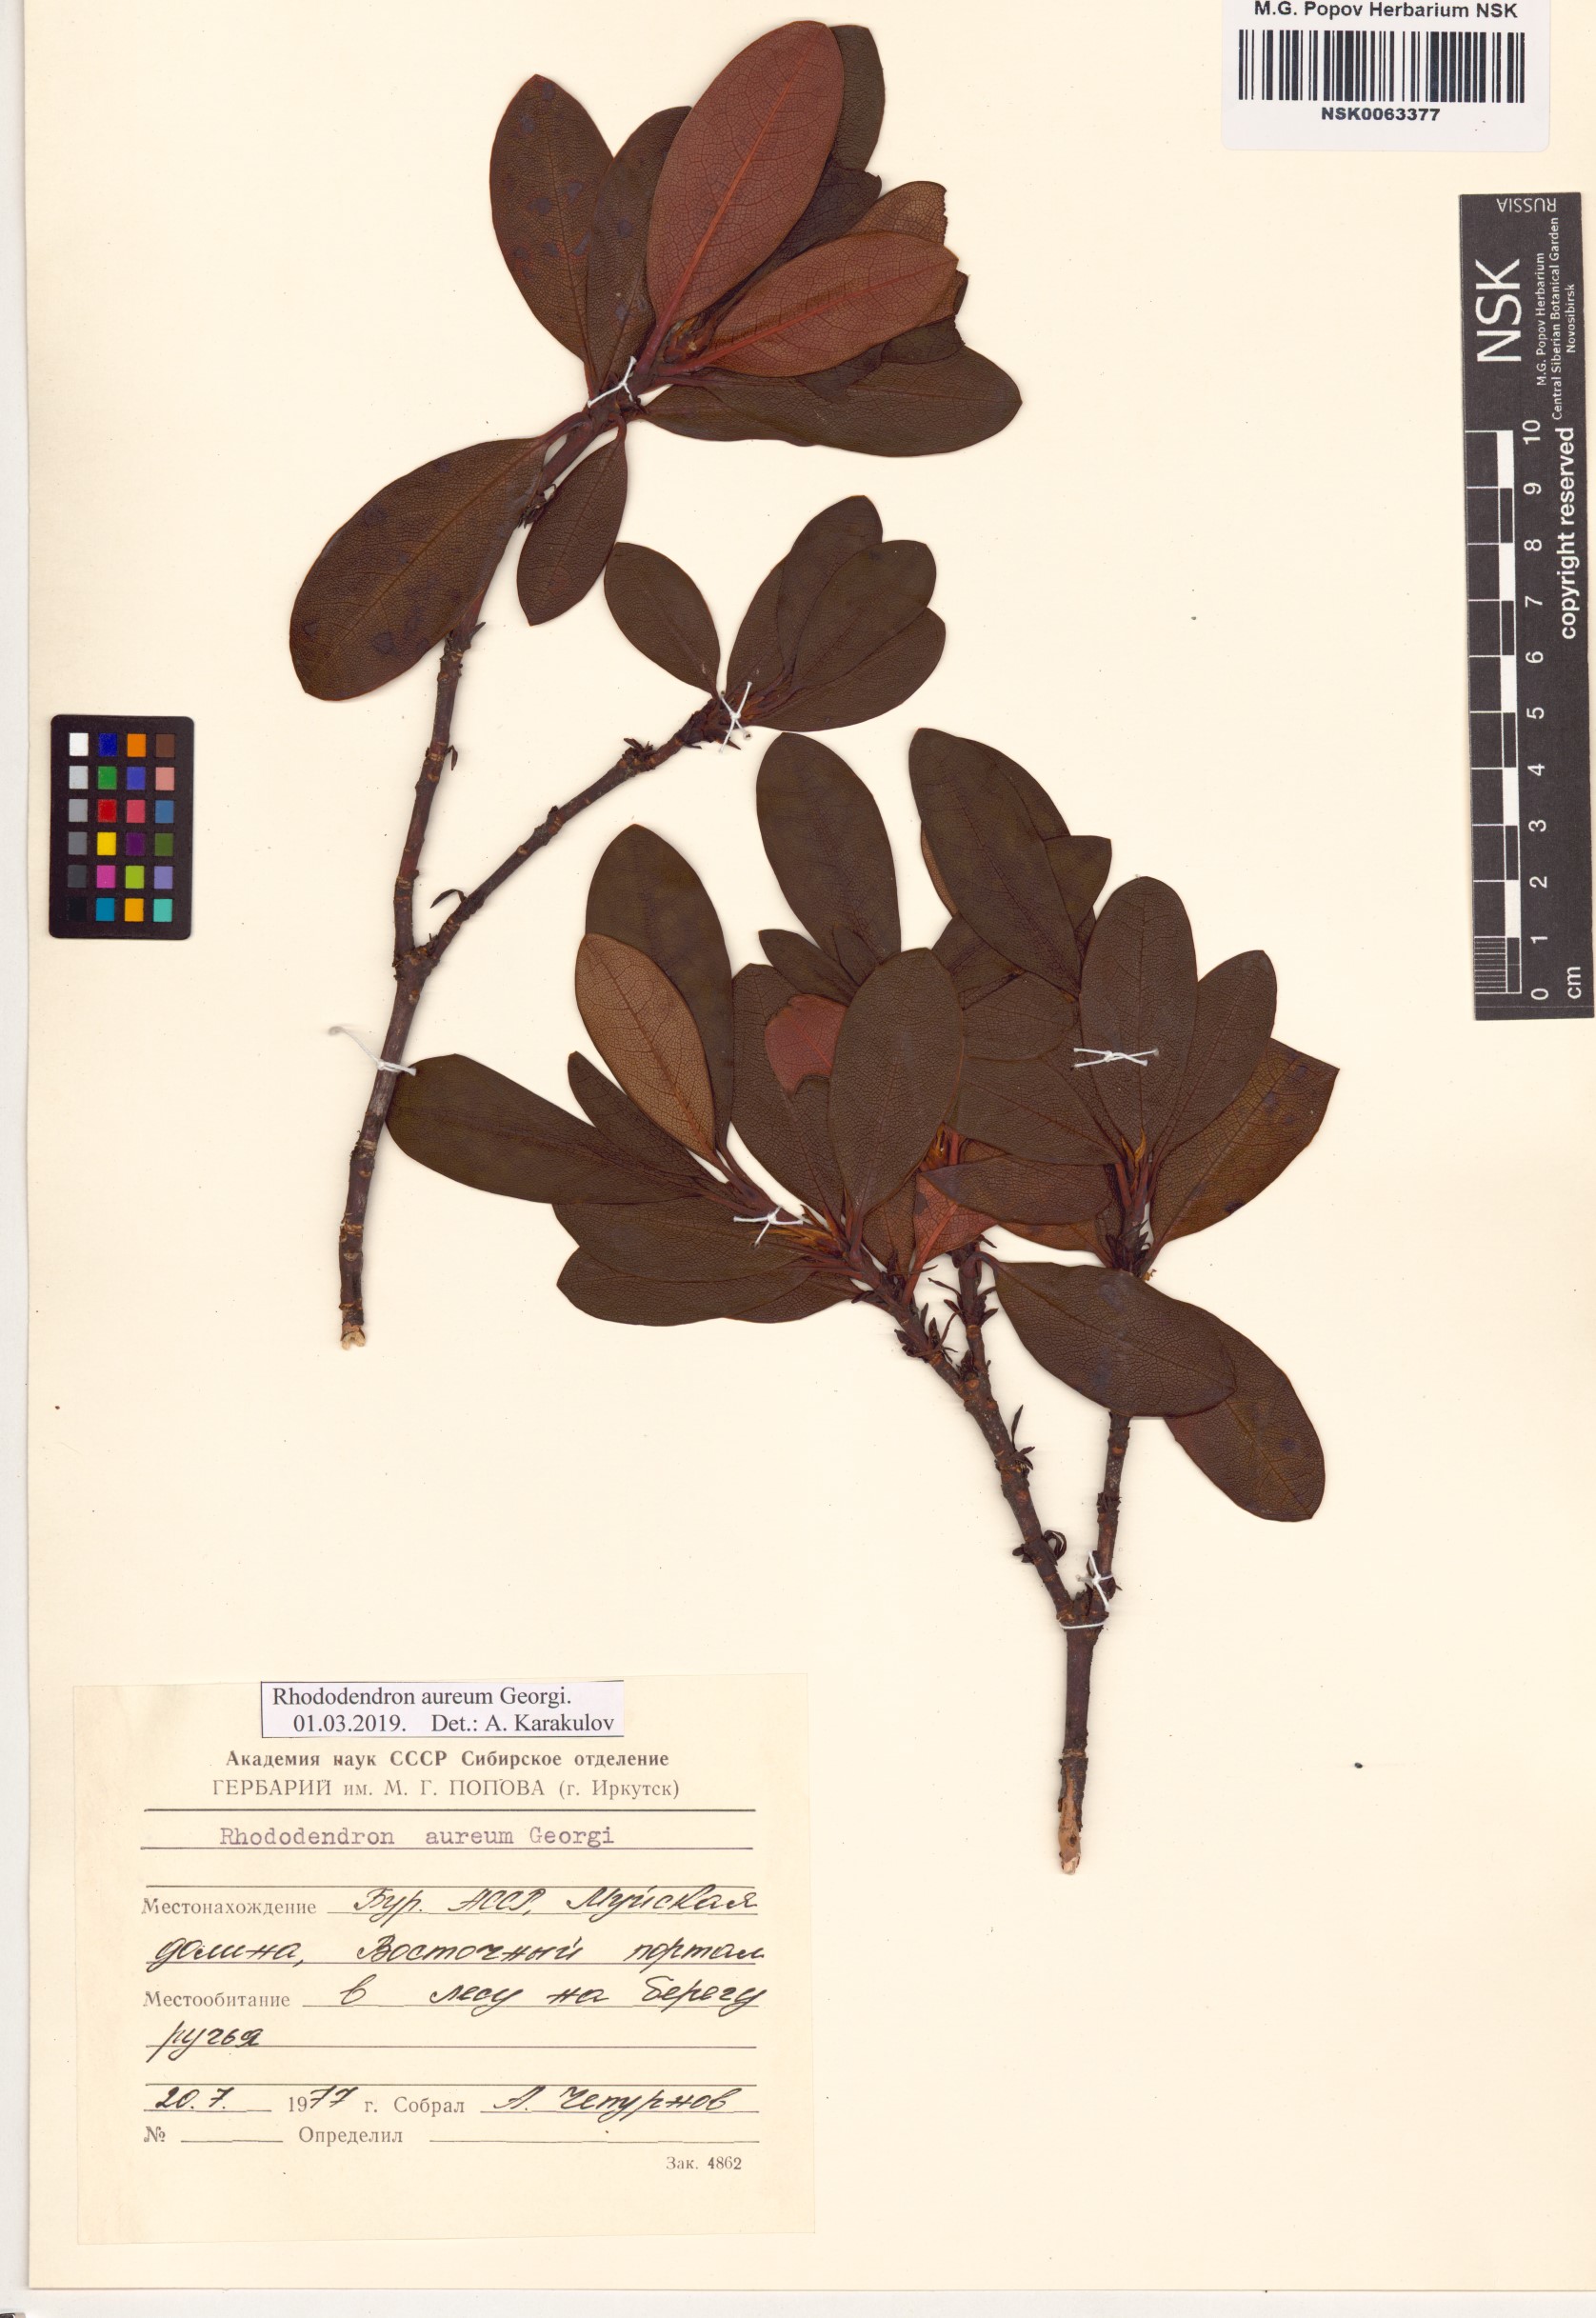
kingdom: Plantae
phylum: Tracheophyta
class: Magnoliopsida
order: Ericales
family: Ericaceae
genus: Rhododendron
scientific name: Rhododendron aureum
